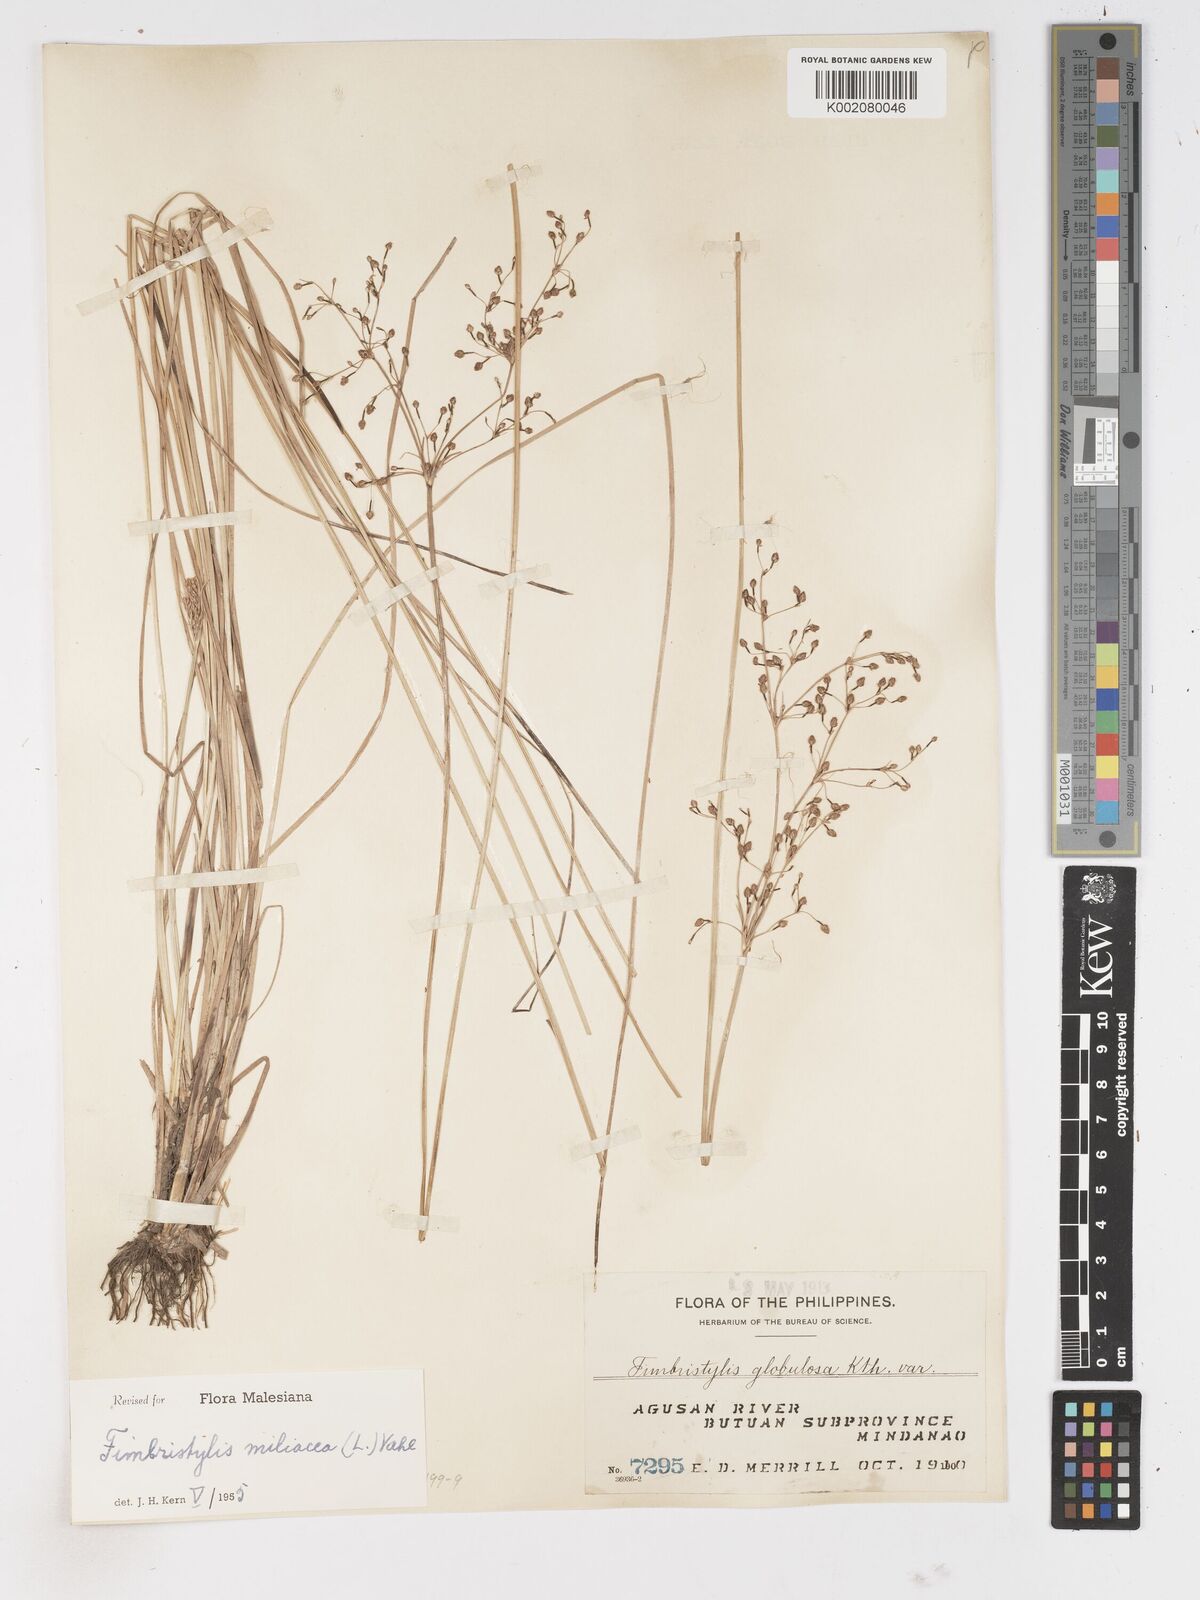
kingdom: Plantae
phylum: Tracheophyta
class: Liliopsida
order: Poales
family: Cyperaceae
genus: Fimbristylis
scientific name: Fimbristylis littoralis
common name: Fimbry
